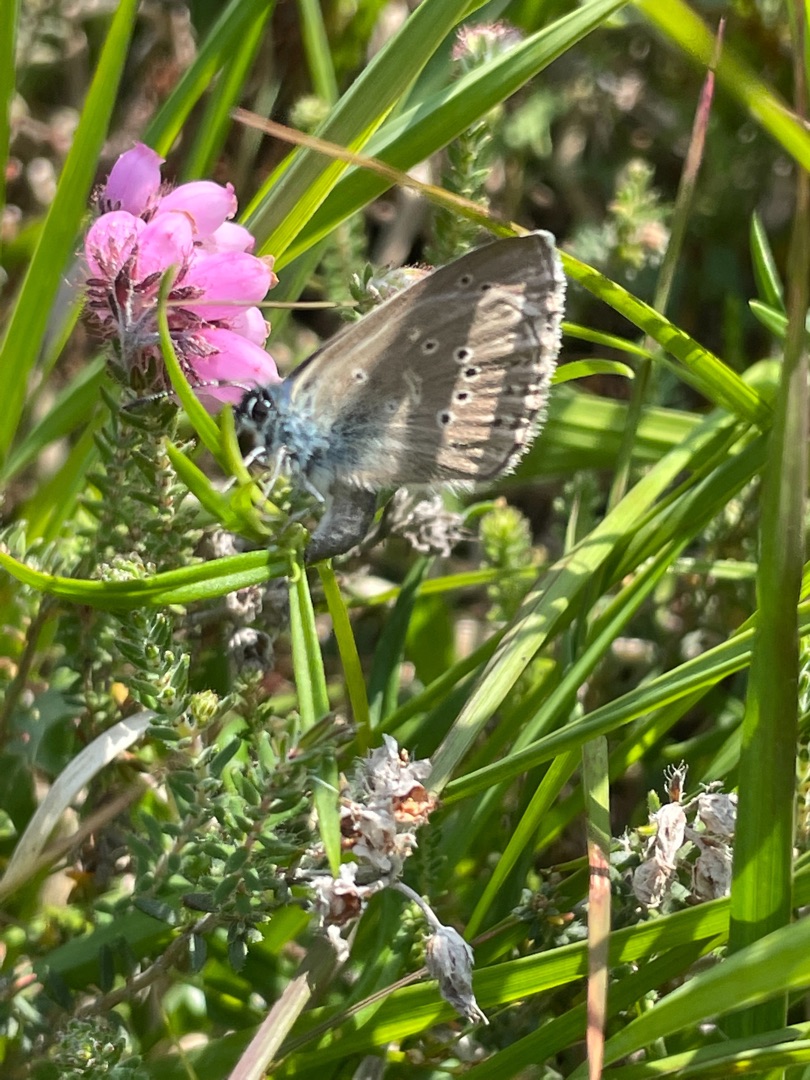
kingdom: Animalia
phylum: Arthropoda
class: Insecta
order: Lepidoptera
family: Lycaenidae
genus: Maculinea
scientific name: Maculinea alcon
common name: Ensianblåfugl
